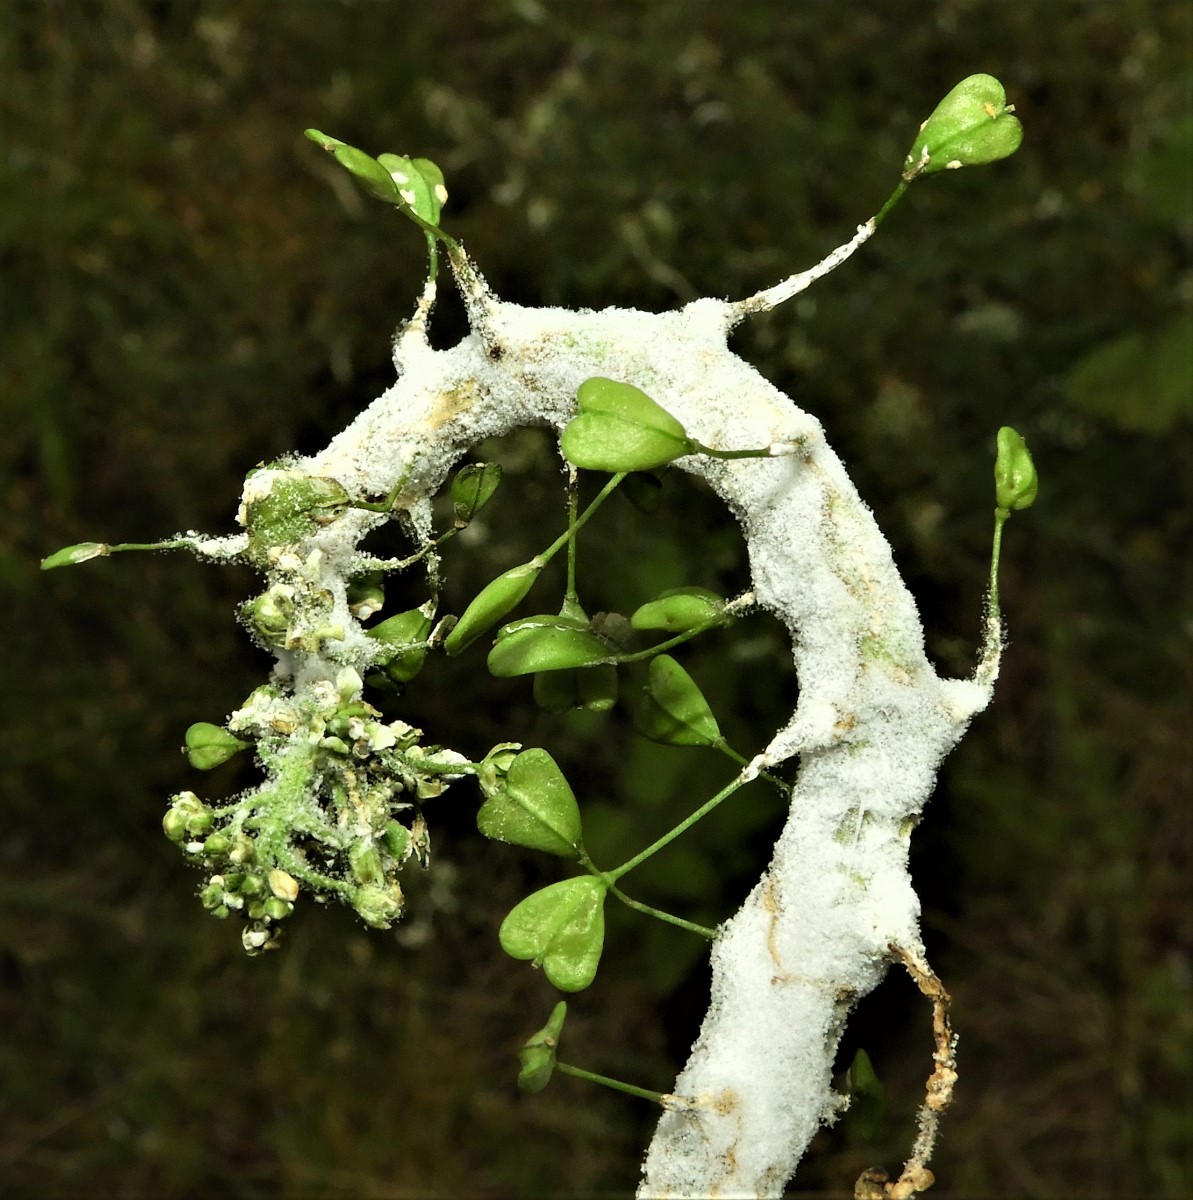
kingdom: Chromista
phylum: Oomycota
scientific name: Oomycota
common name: ægsporealger
